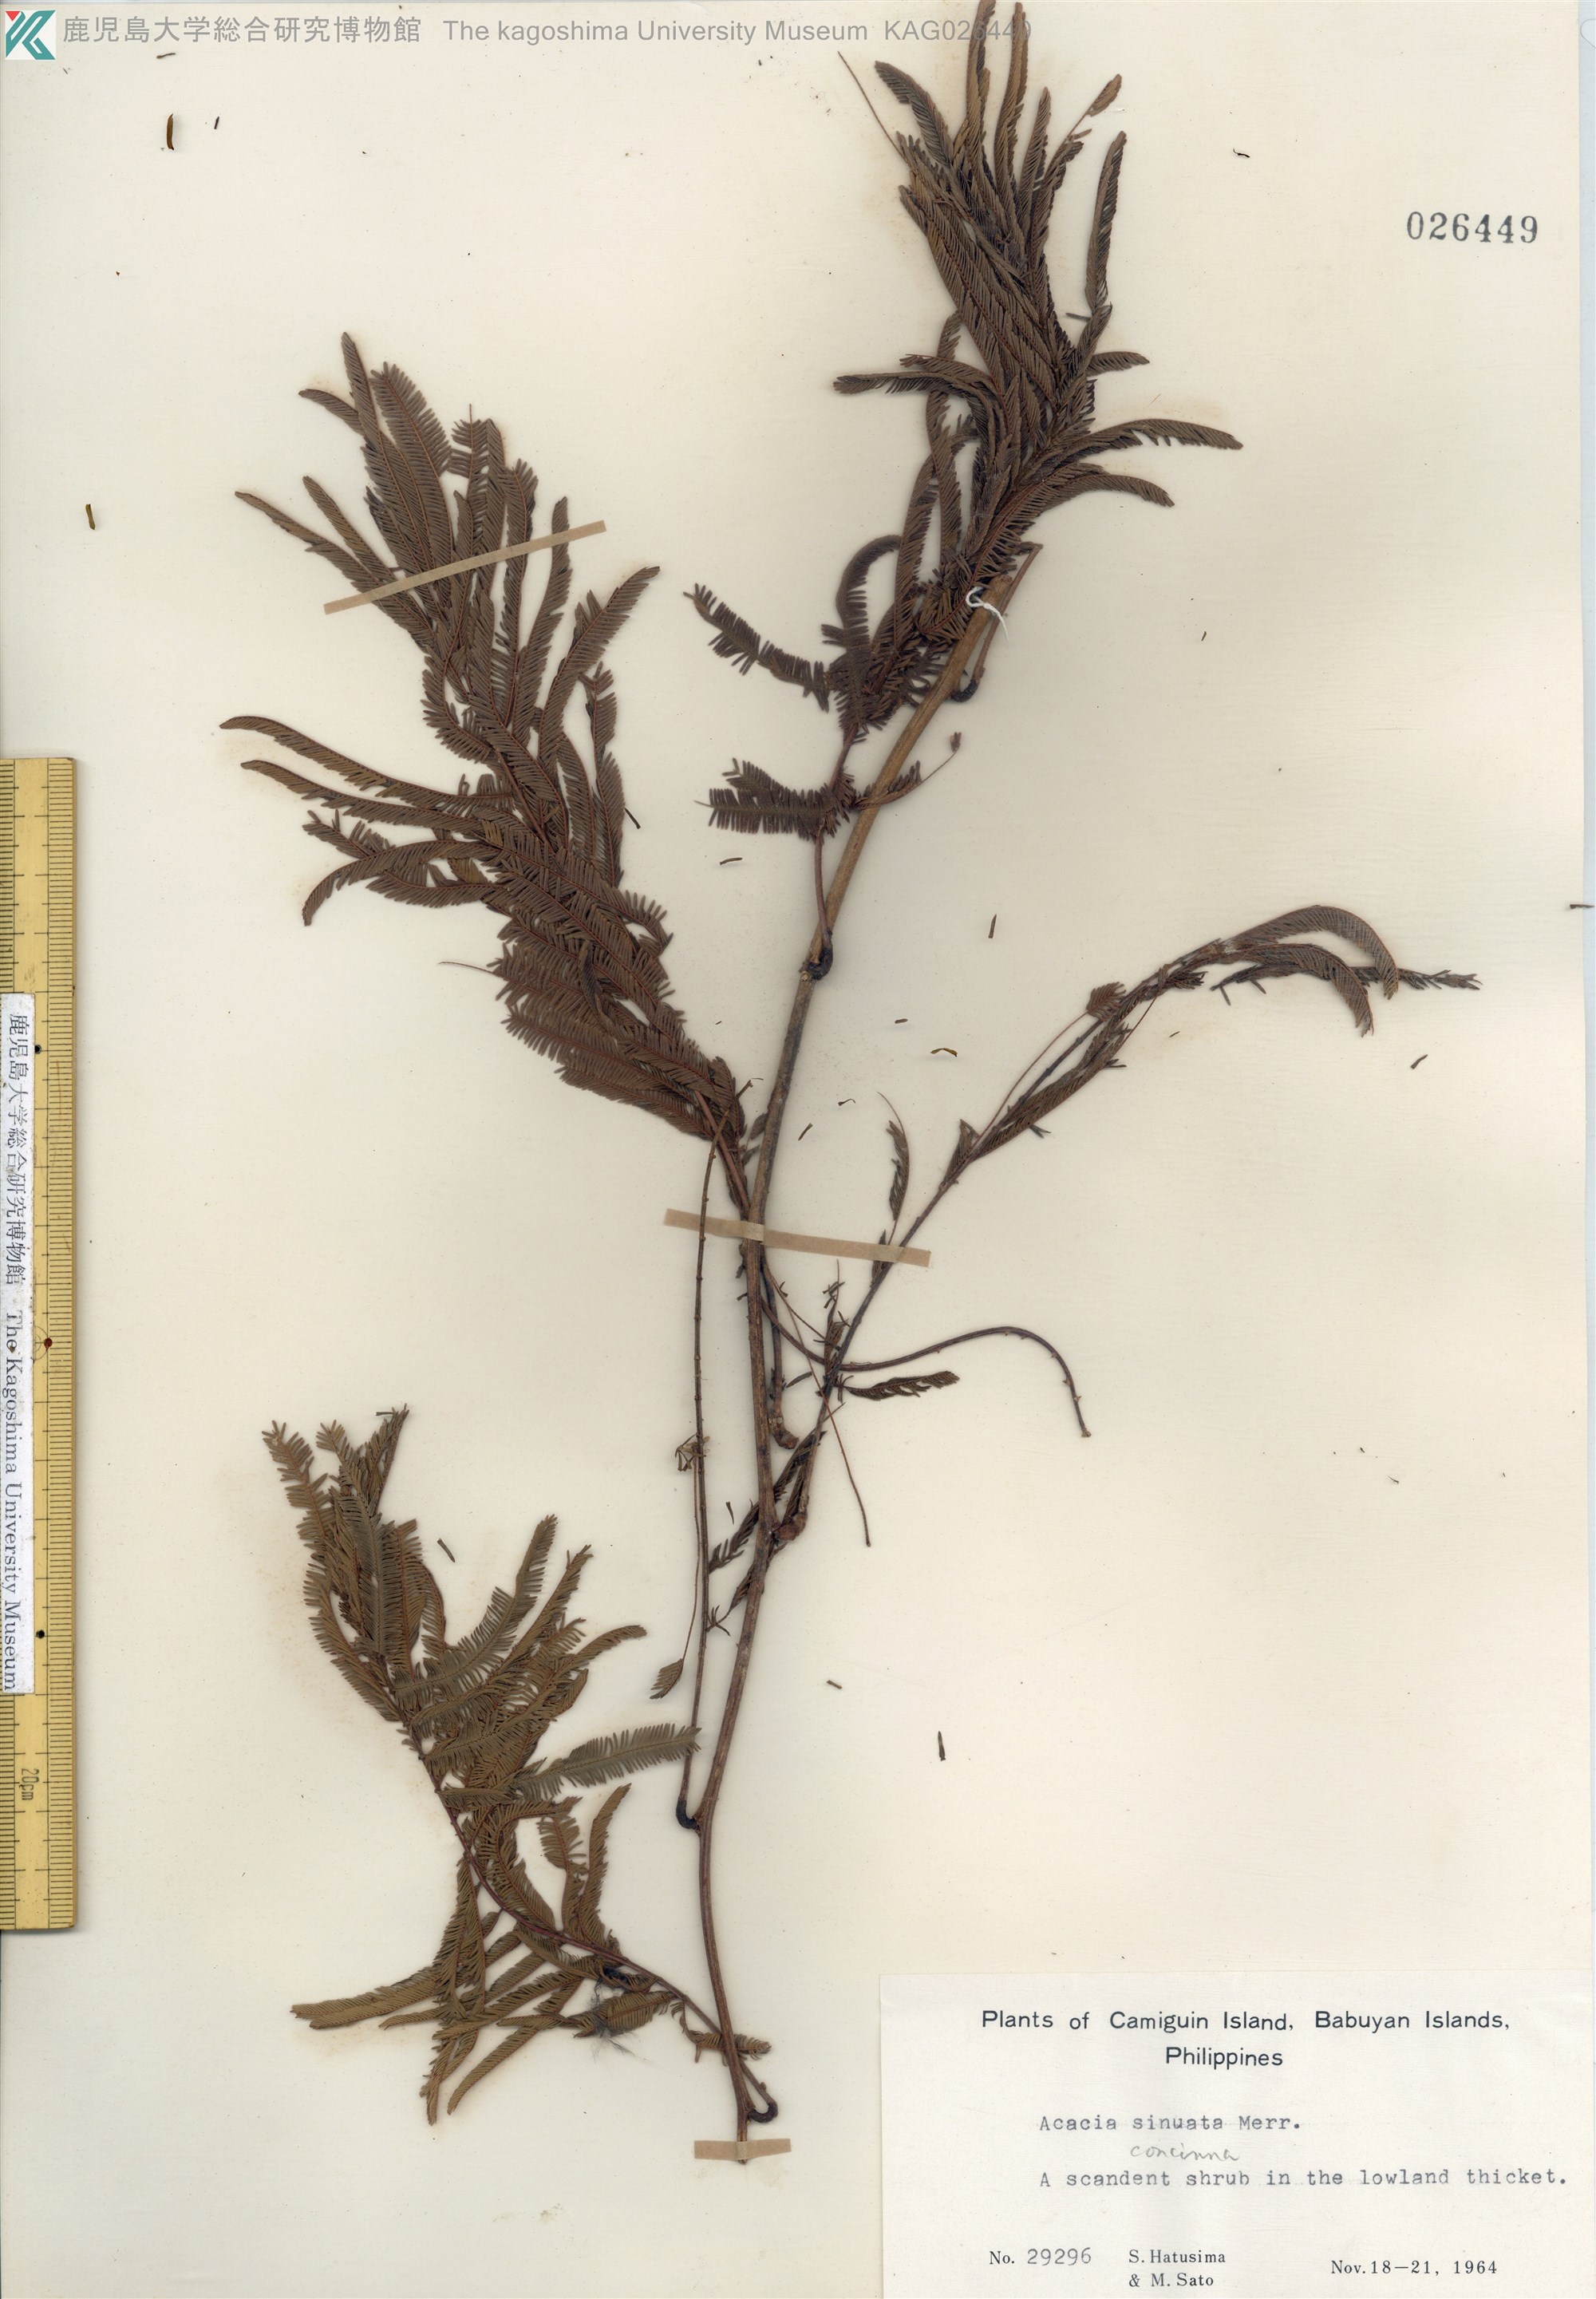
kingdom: Plantae
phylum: Tracheophyta
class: Magnoliopsida
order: Fabales
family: Fabaceae
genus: Senegalia
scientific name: Senegalia rugata
